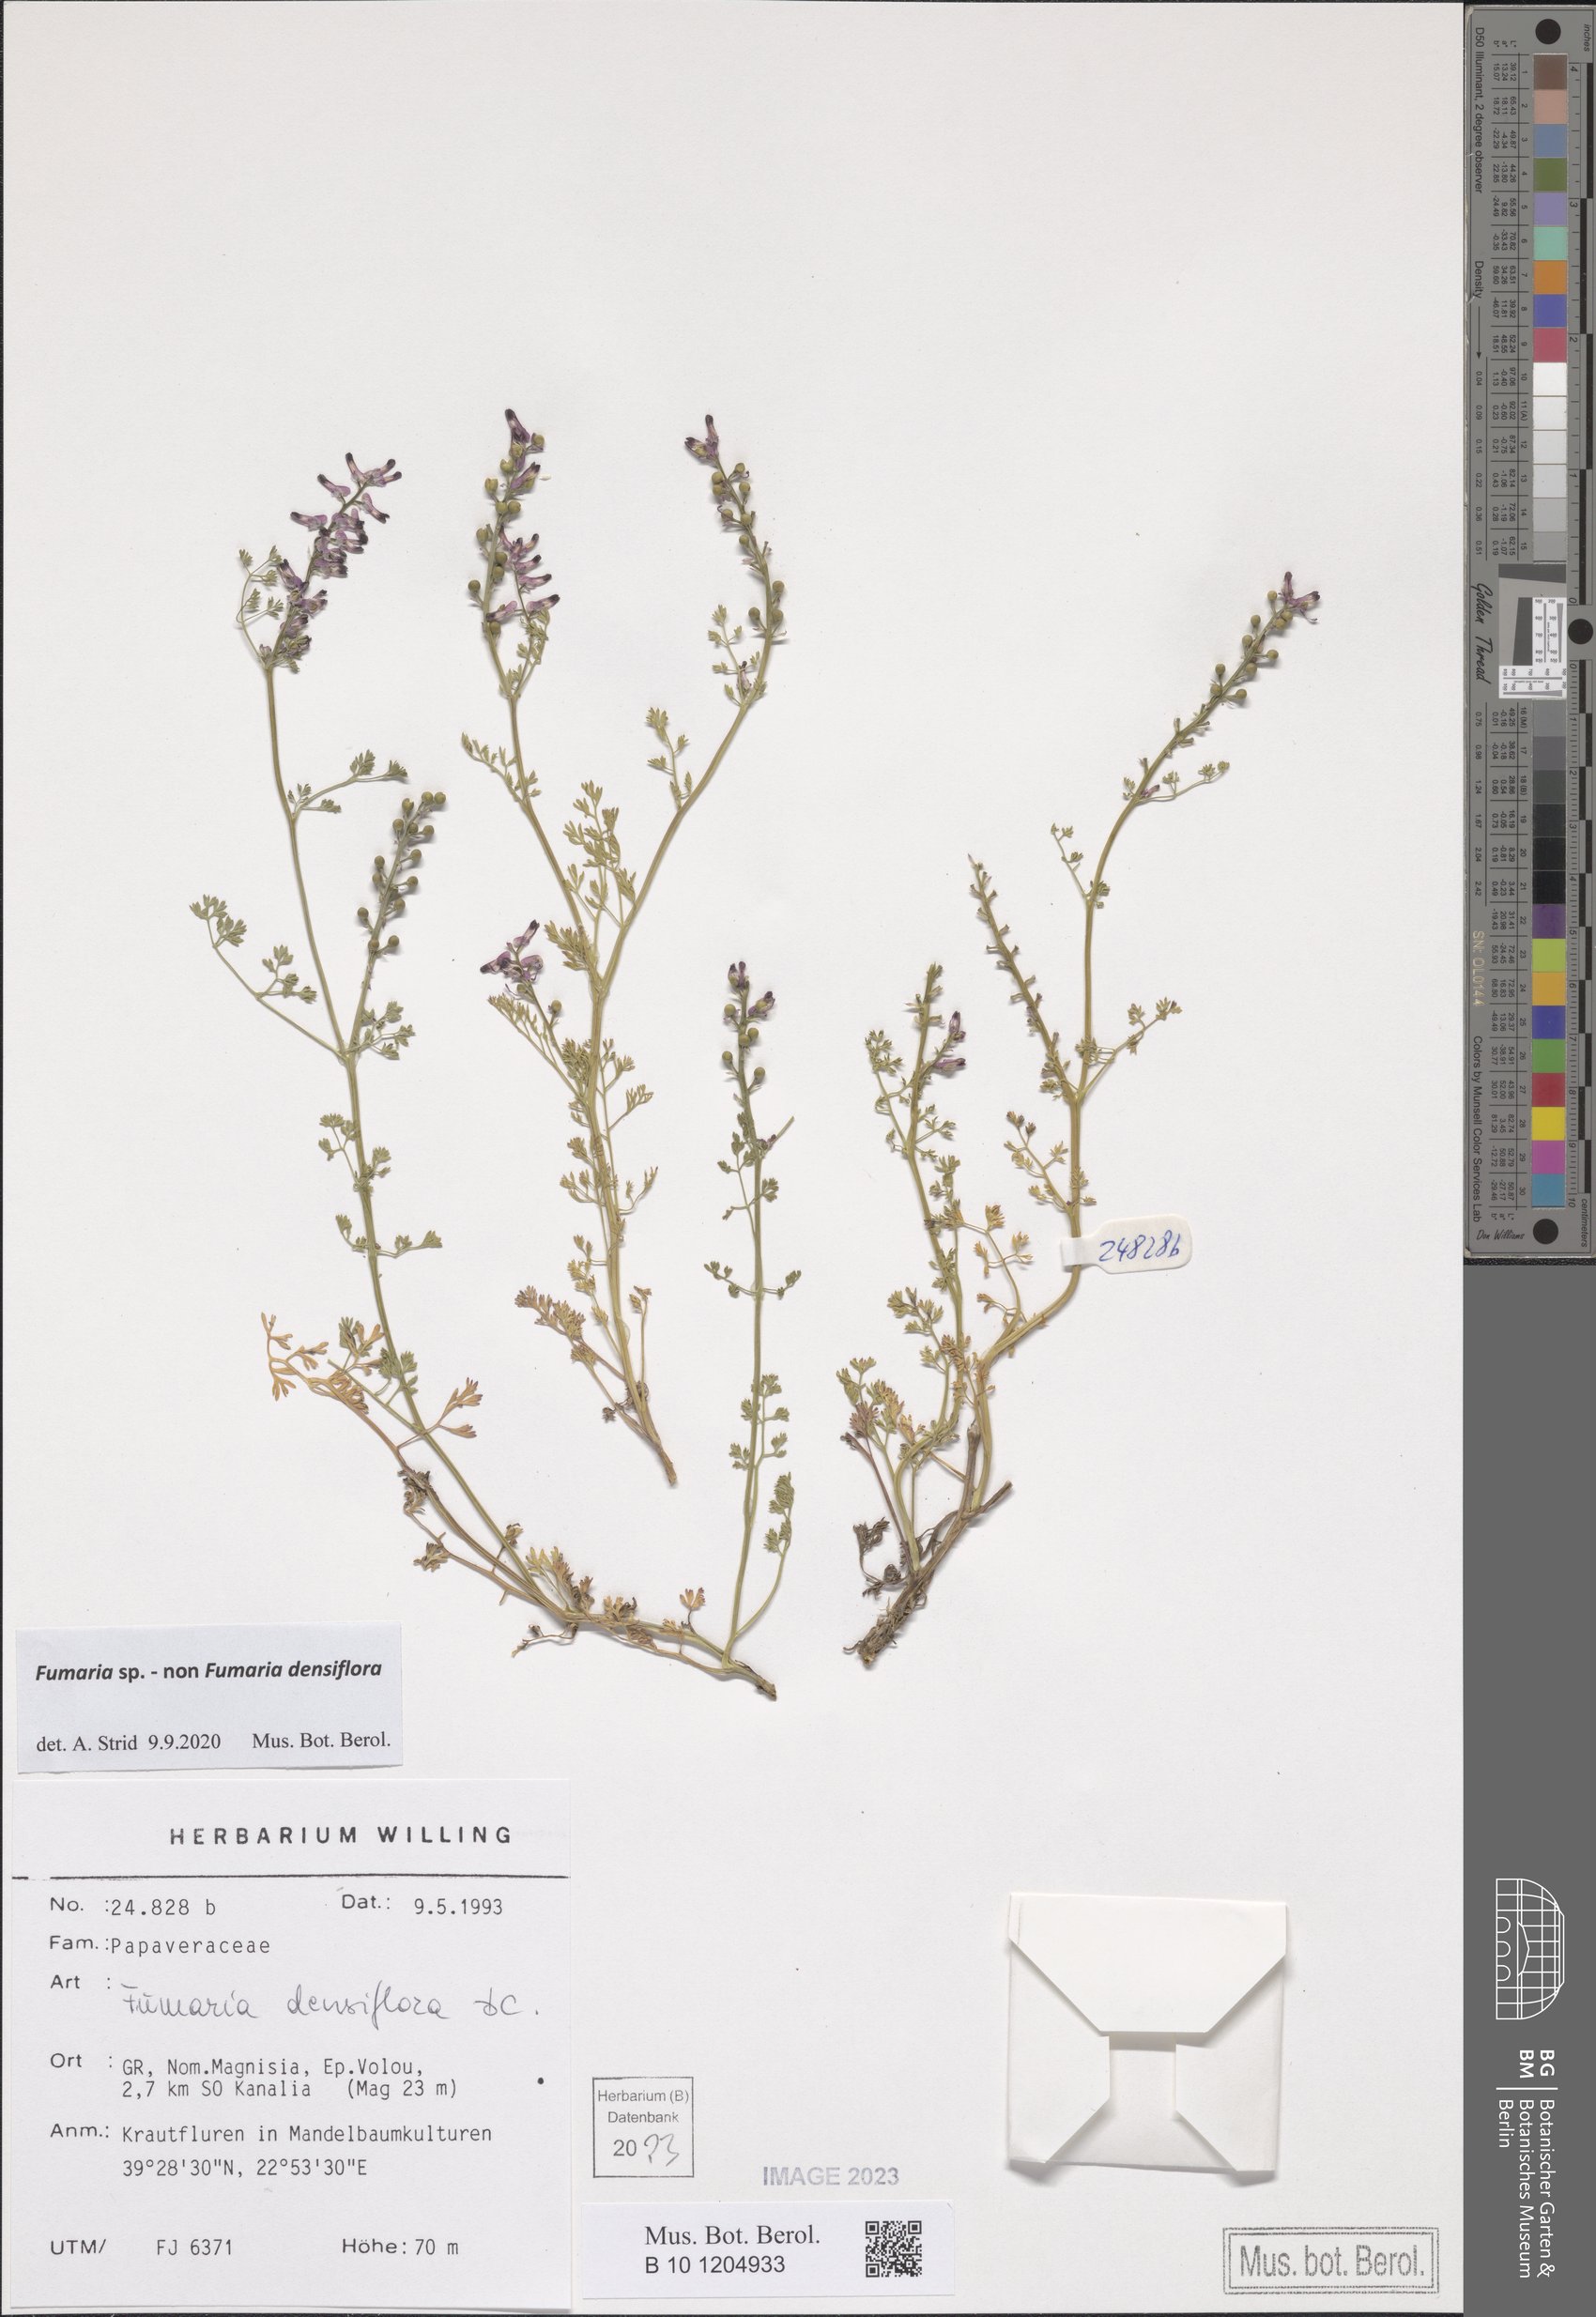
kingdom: Plantae
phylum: Tracheophyta
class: Magnoliopsida
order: Ranunculales
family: Papaveraceae
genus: Fumaria
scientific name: Fumaria
